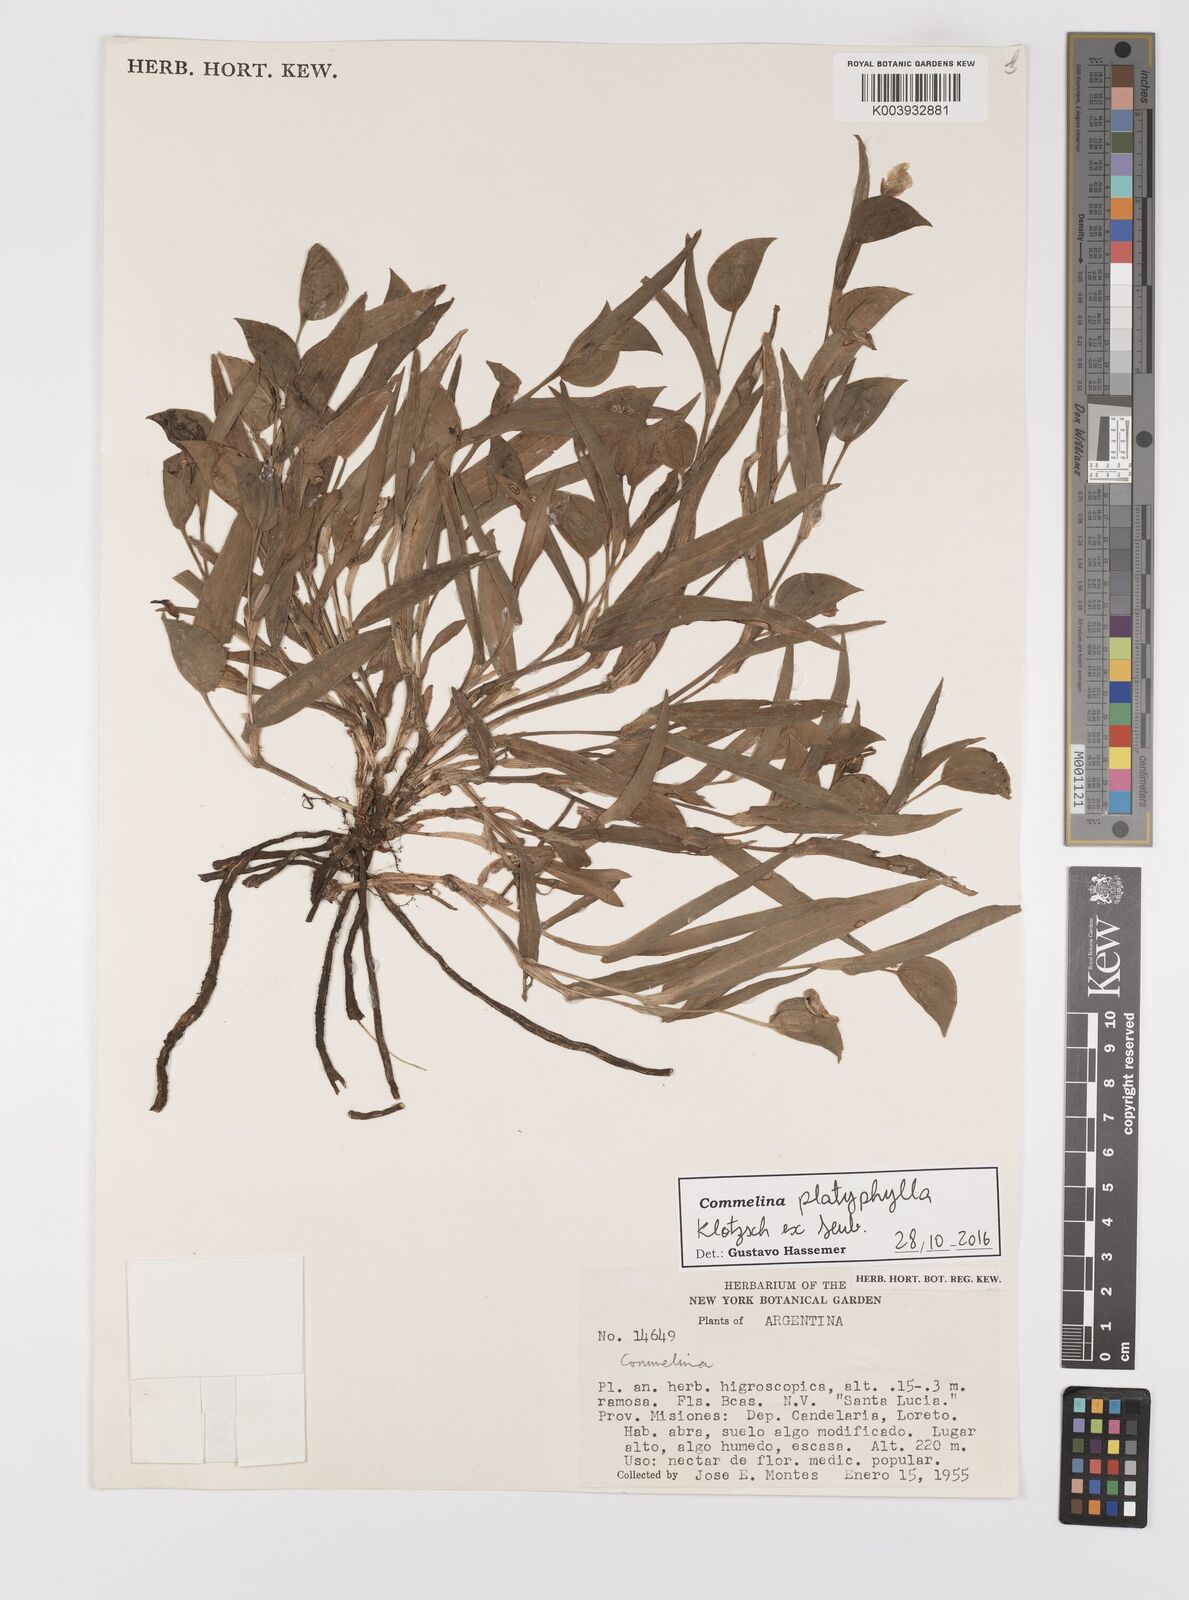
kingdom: Plantae
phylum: Tracheophyta
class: Liliopsida
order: Commelinales
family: Commelinaceae
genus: Commelina
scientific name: Commelina platyphylla
